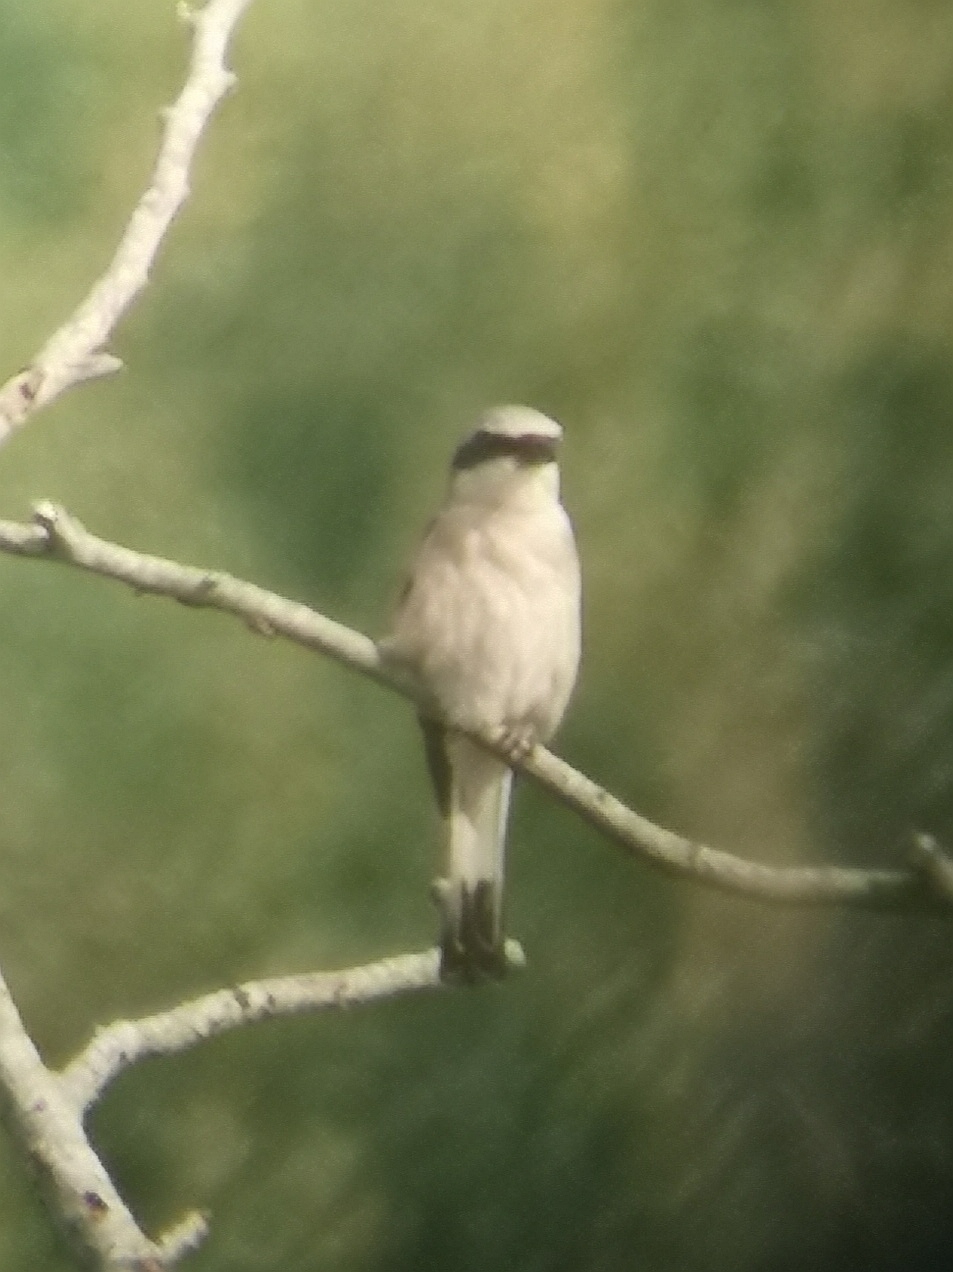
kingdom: Animalia
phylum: Chordata
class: Aves
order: Passeriformes
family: Laniidae
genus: Lanius
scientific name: Lanius collurio
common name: Rødrygget tornskade
